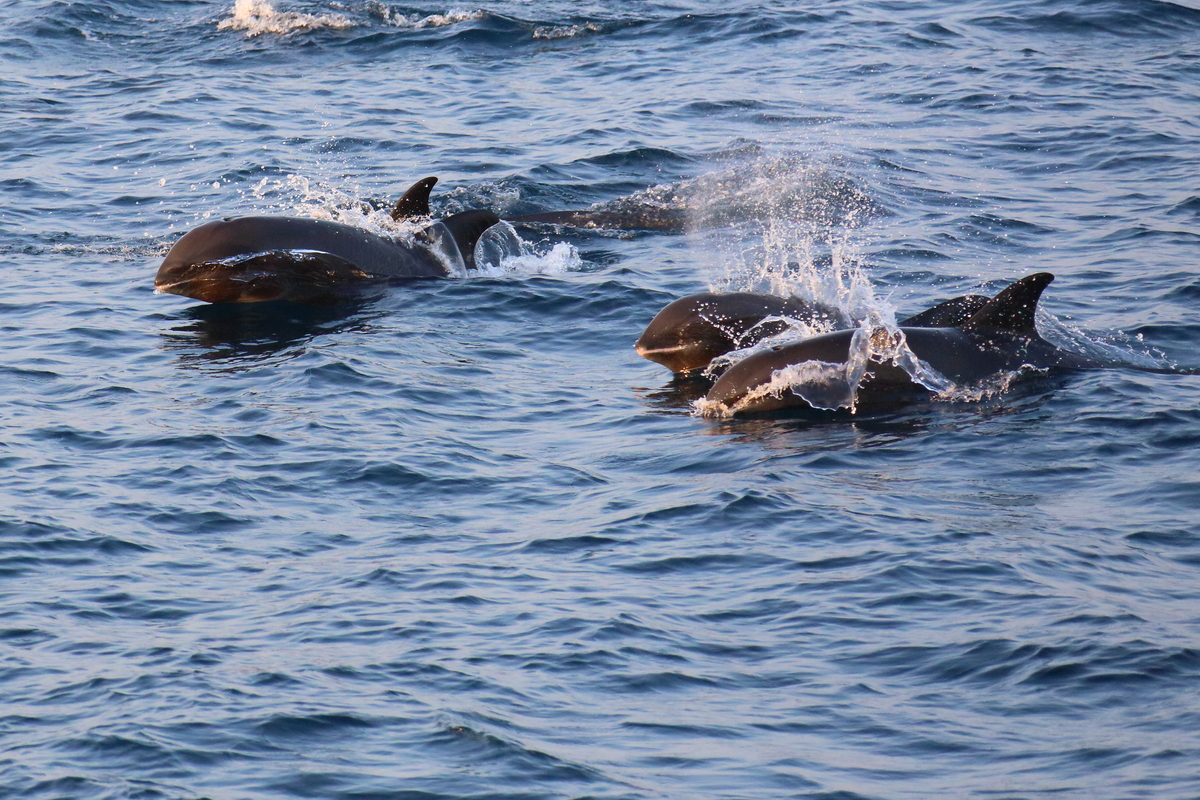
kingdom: Animalia
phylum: Chordata
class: Mammalia
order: Cetacea
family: Delphinidae
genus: Peponocephala
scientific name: Peponocephala electra
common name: Melon-headed Whale
